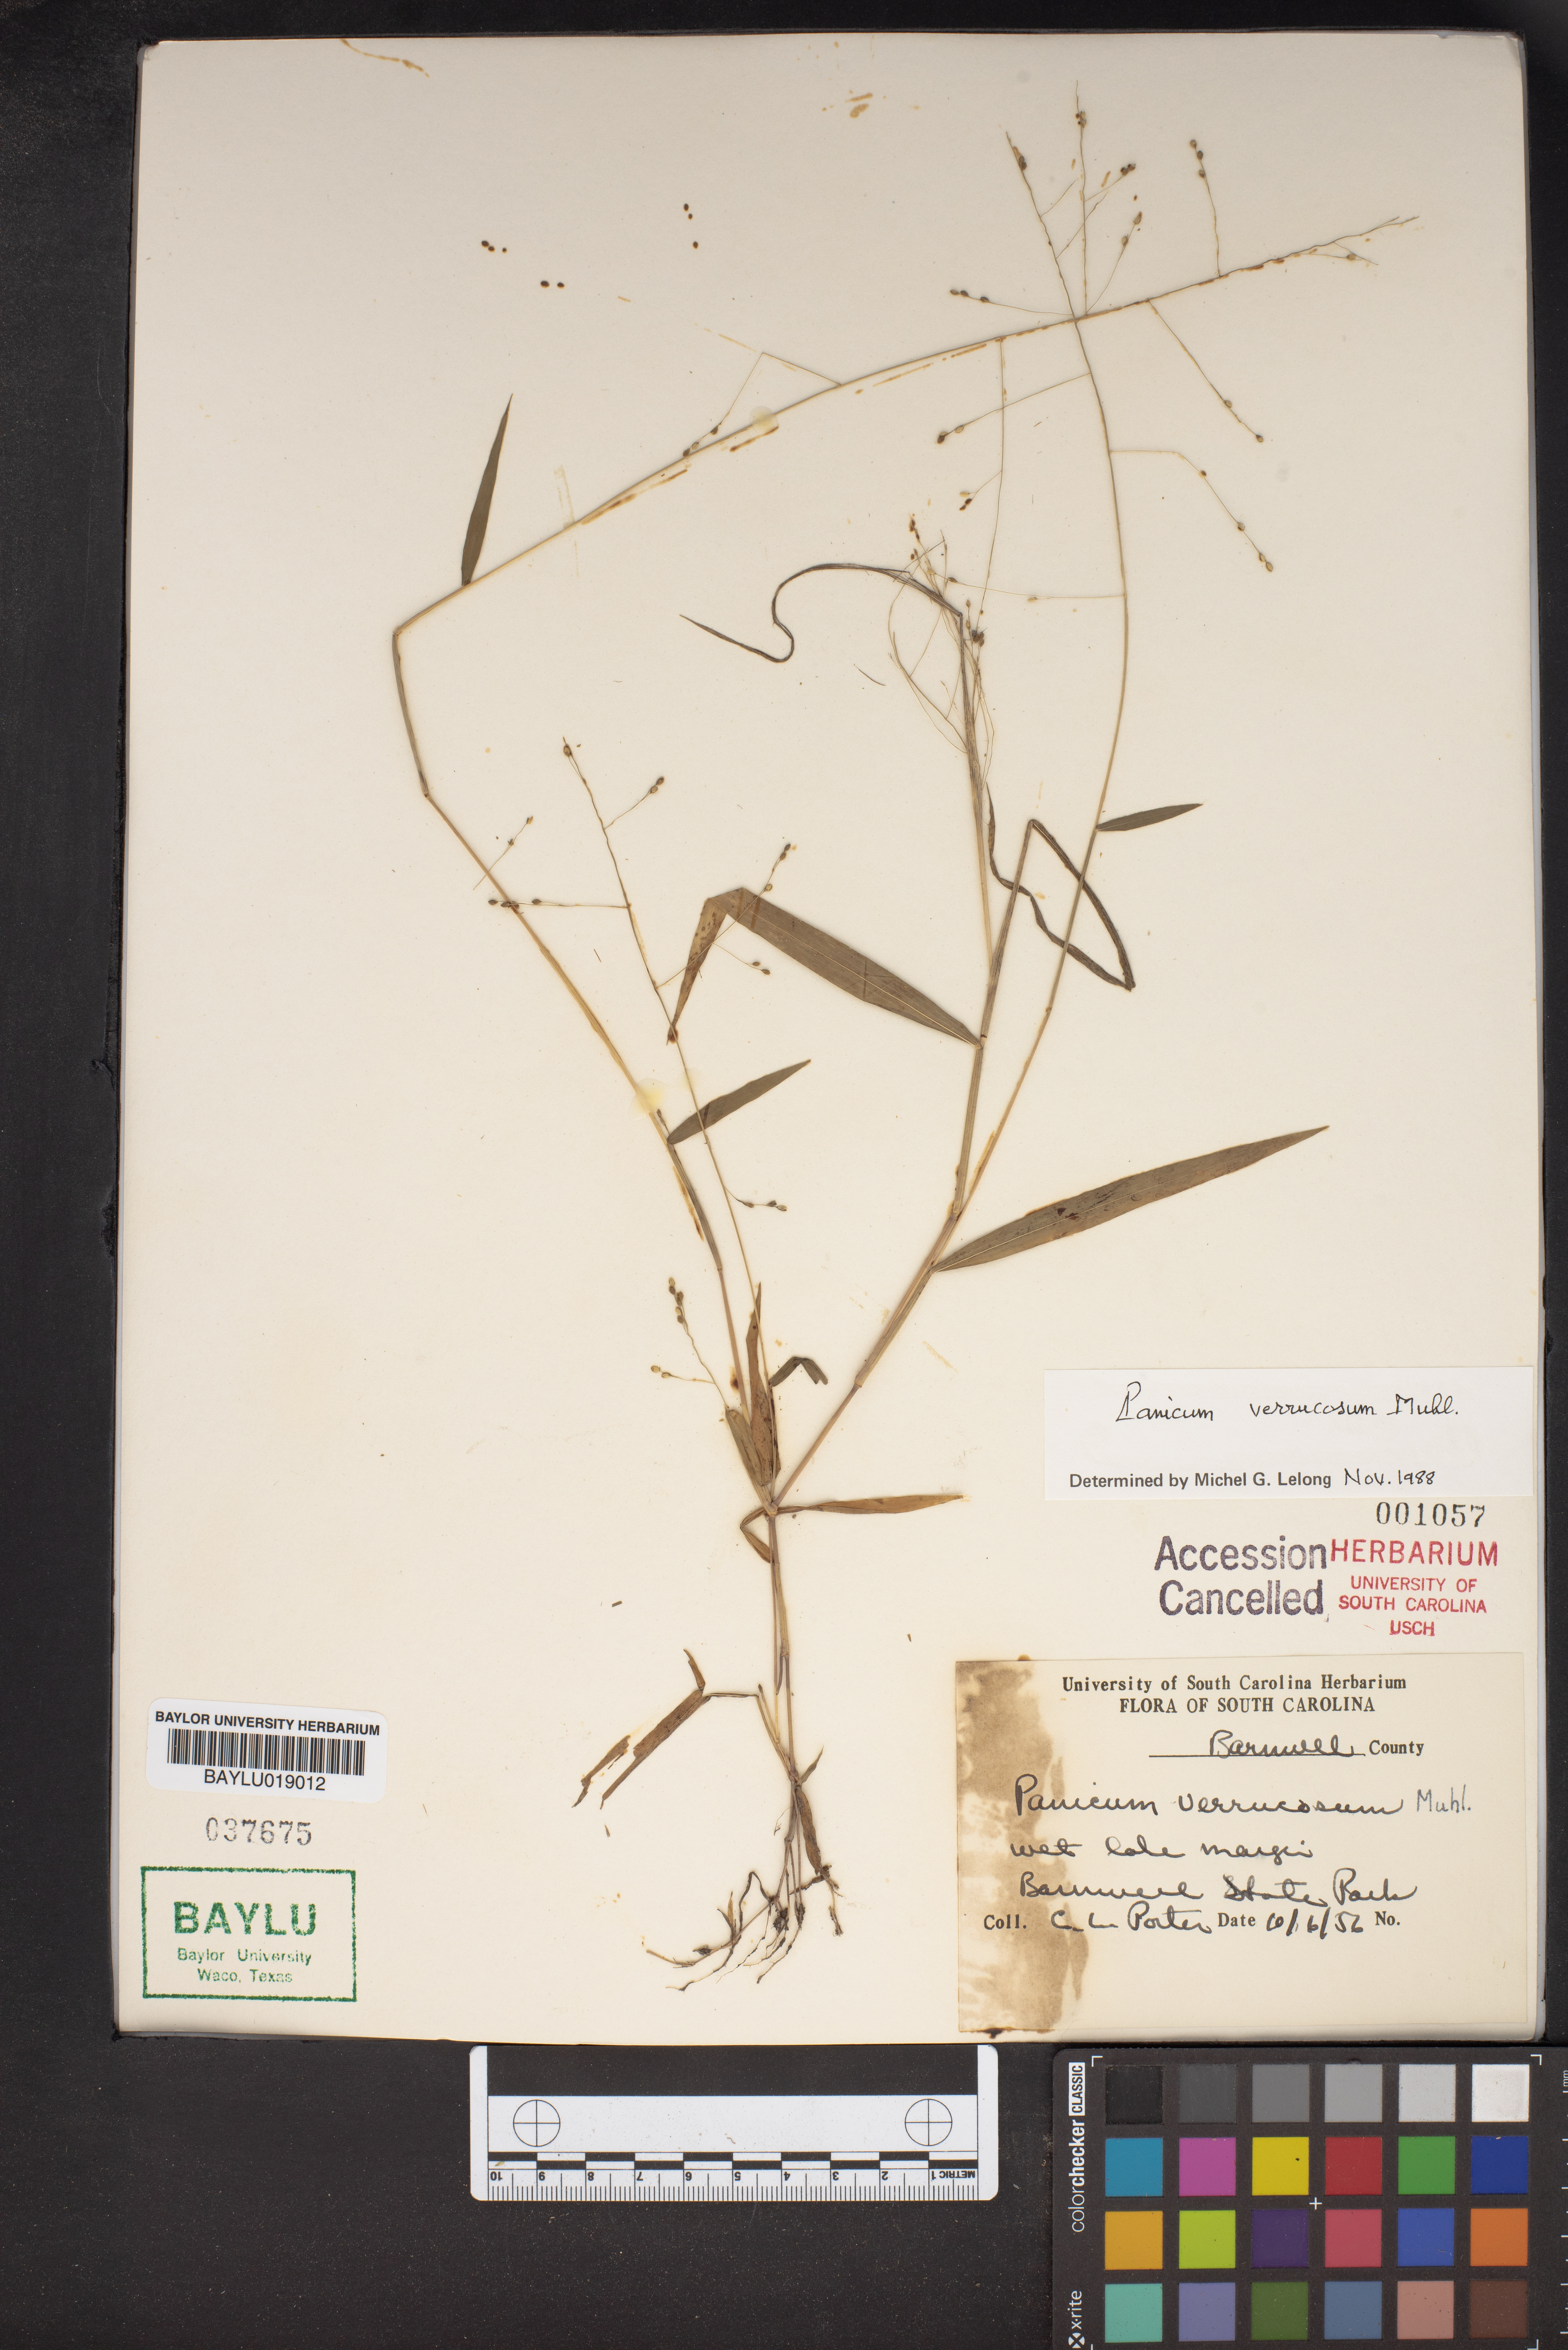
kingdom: Plantae
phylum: Tracheophyta
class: Liliopsida
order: Poales
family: Poaceae
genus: Kellochloa
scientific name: Kellochloa verrucosa
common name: Warty panic grass
